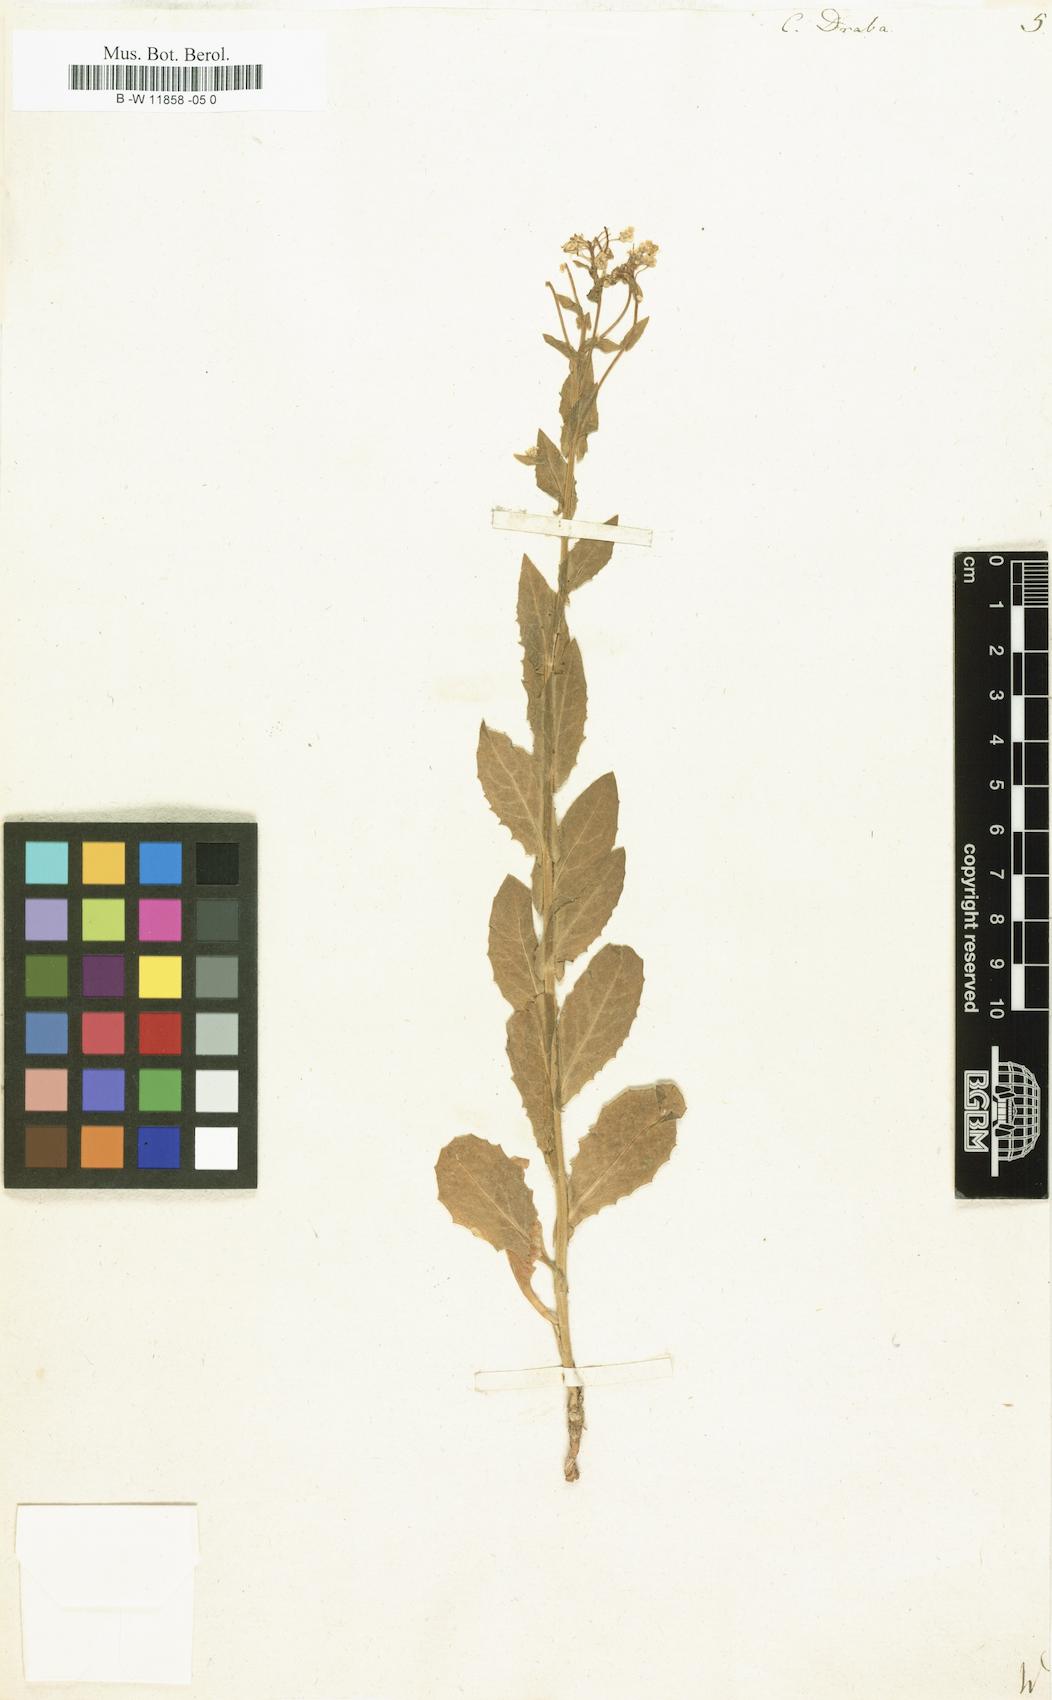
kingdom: Plantae
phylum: Tracheophyta
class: Magnoliopsida
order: Brassicales
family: Brassicaceae
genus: Lepidium
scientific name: Lepidium draba
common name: Hoary cress
